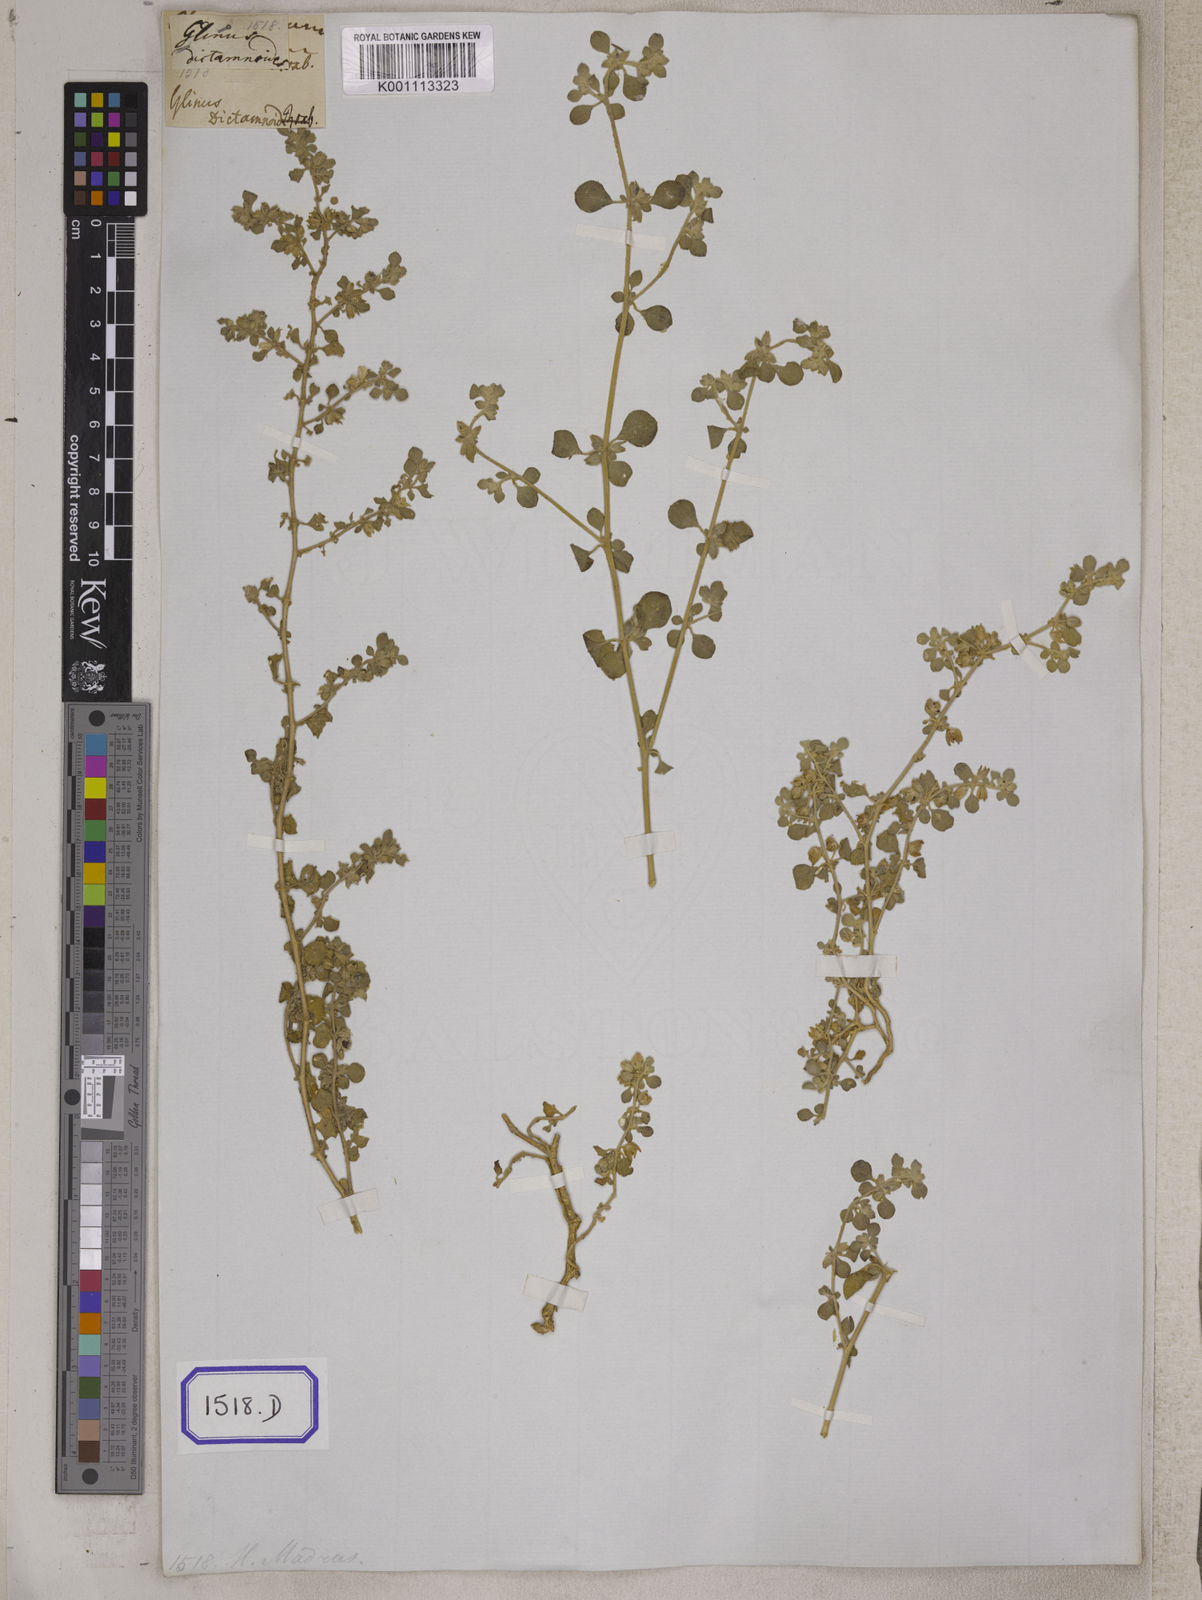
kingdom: Plantae
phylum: Tracheophyta
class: Magnoliopsida
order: Caryophyllales
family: Molluginaceae
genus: Glinus
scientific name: Glinus
